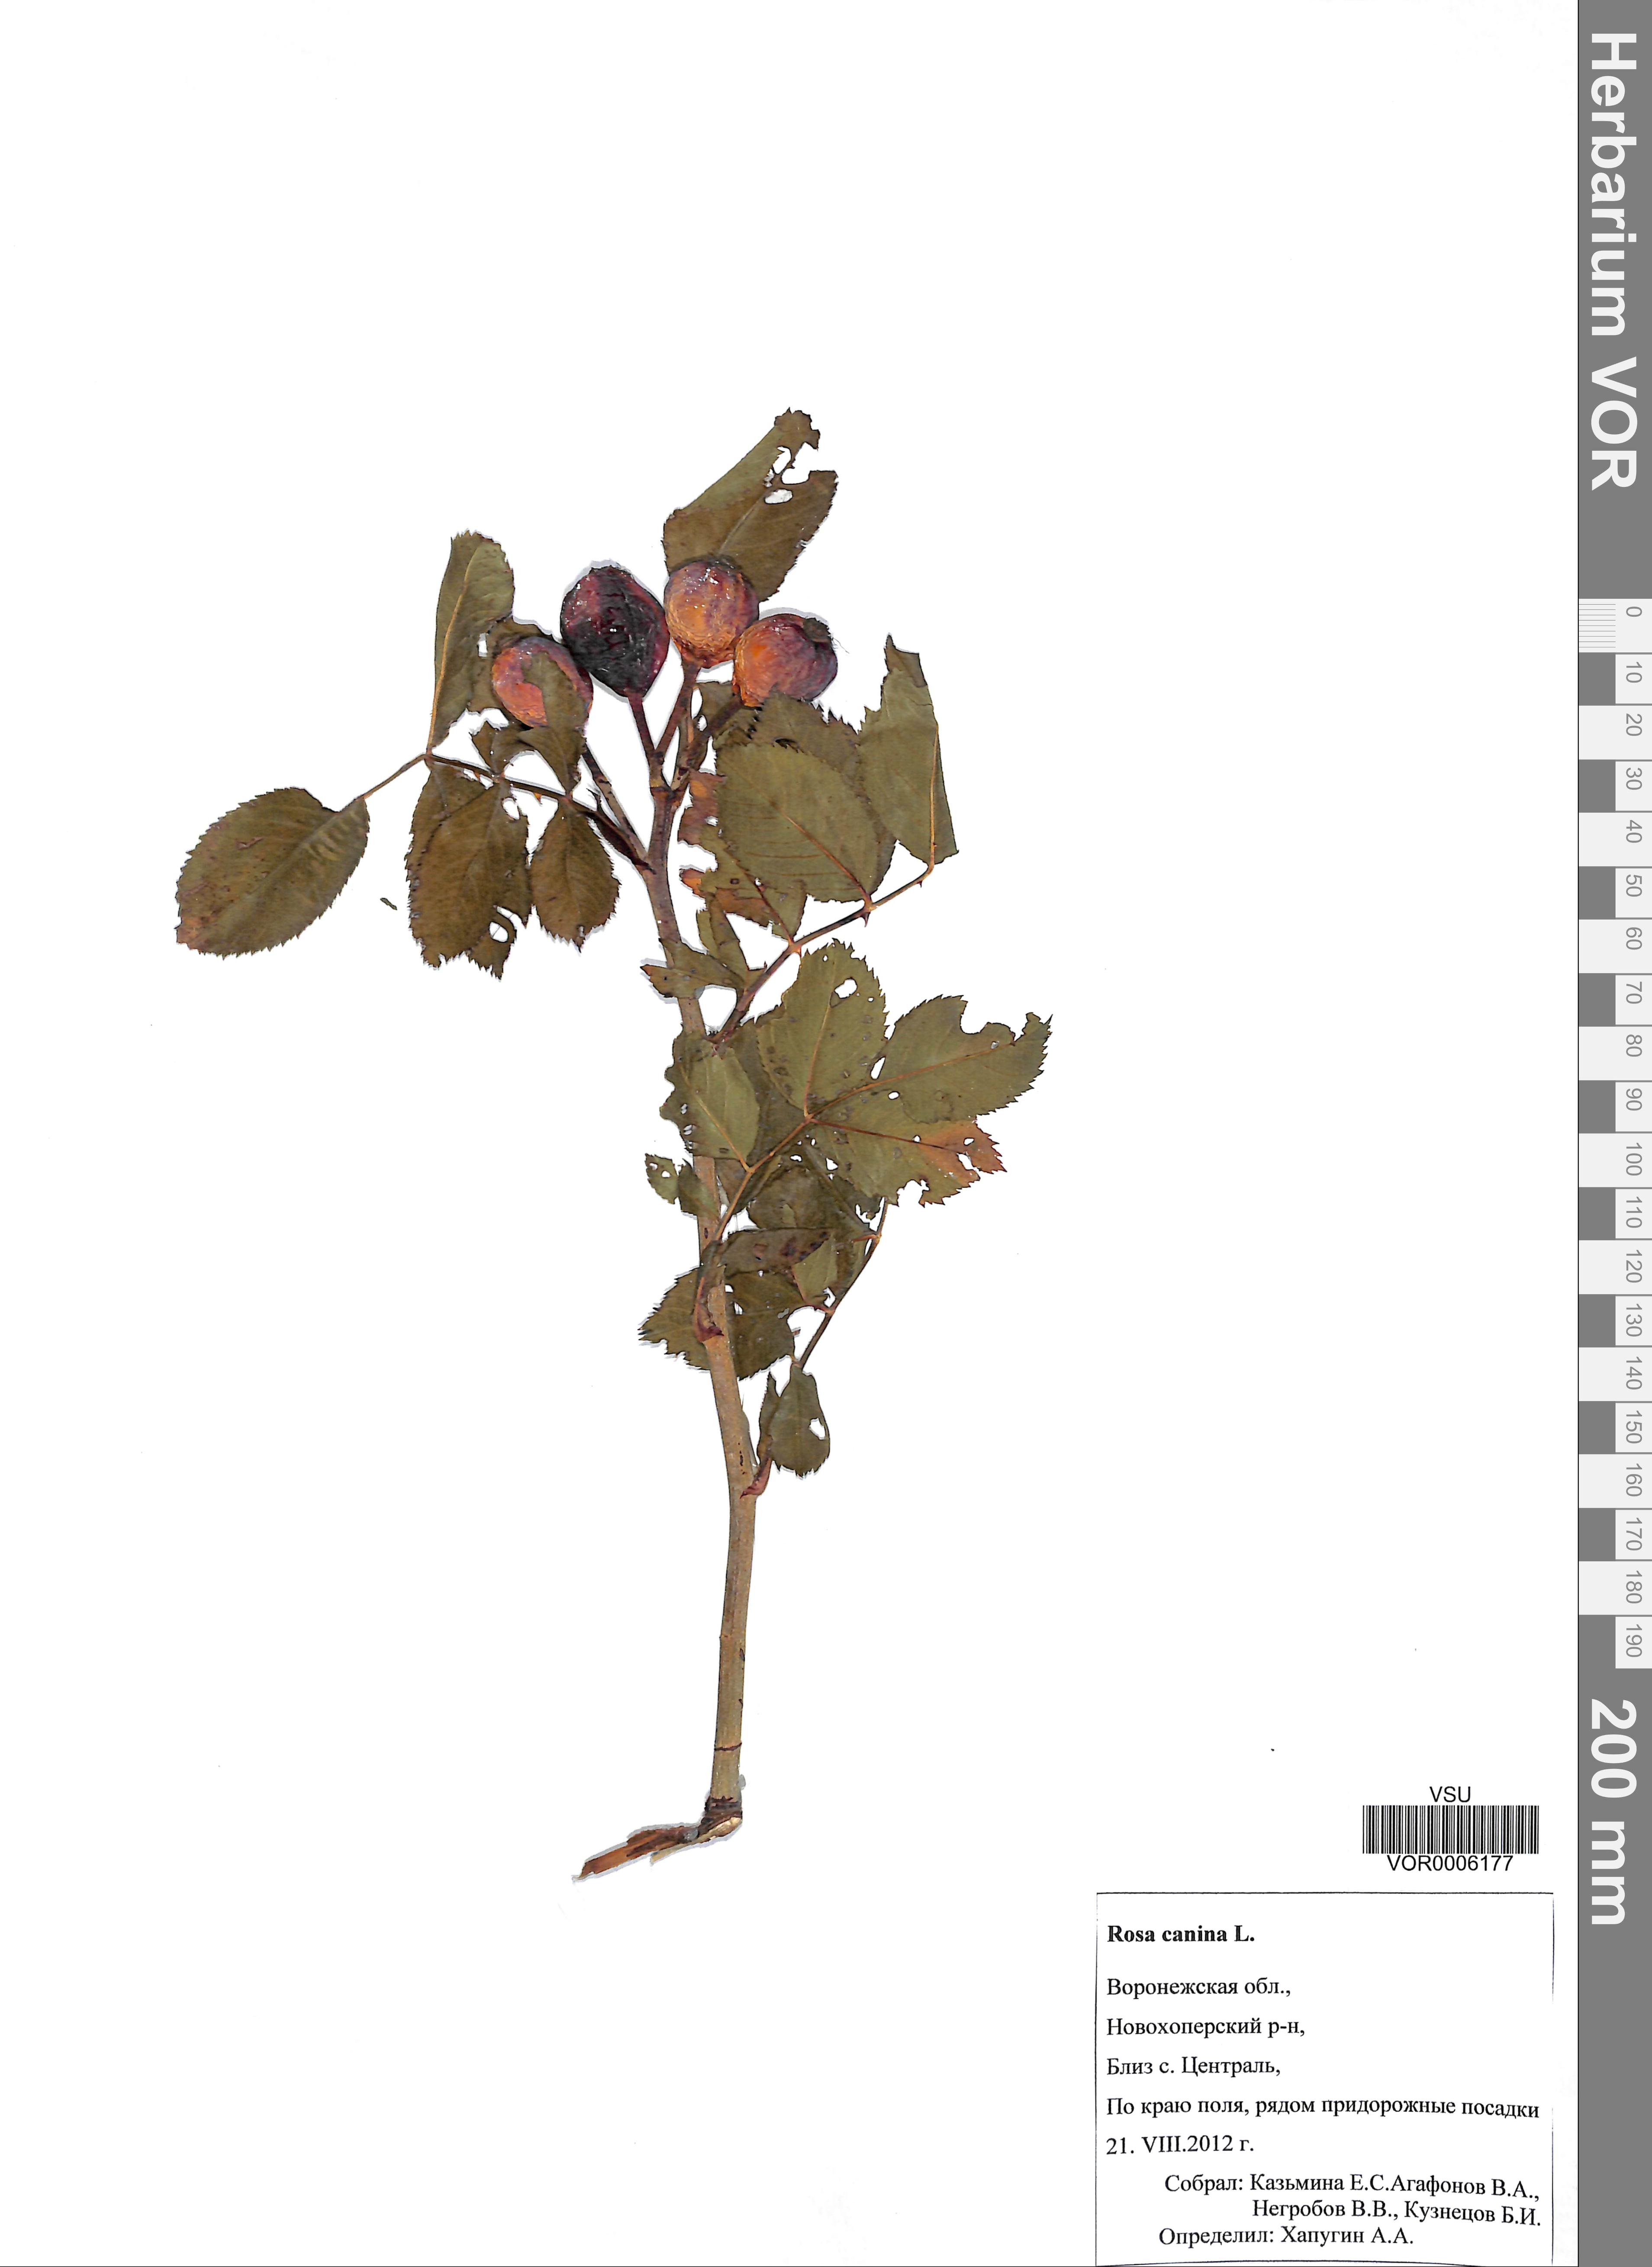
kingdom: Plantae
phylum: Tracheophyta
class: Magnoliopsida
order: Rosales
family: Rosaceae
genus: Rosa
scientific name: Rosa canina
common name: Dog rose
